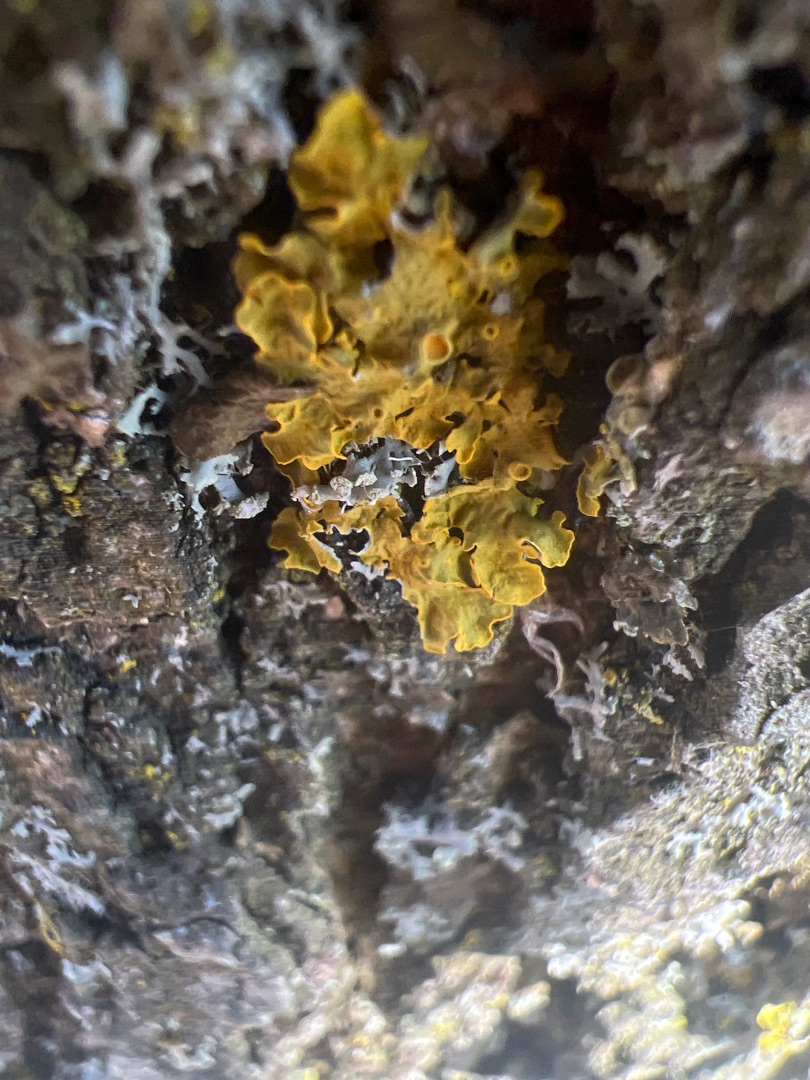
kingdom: Fungi
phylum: Ascomycota
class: Lecanoromycetes
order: Teloschistales
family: Teloschistaceae
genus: Xanthoria
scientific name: Xanthoria parietina
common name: Almindelig væggelav
